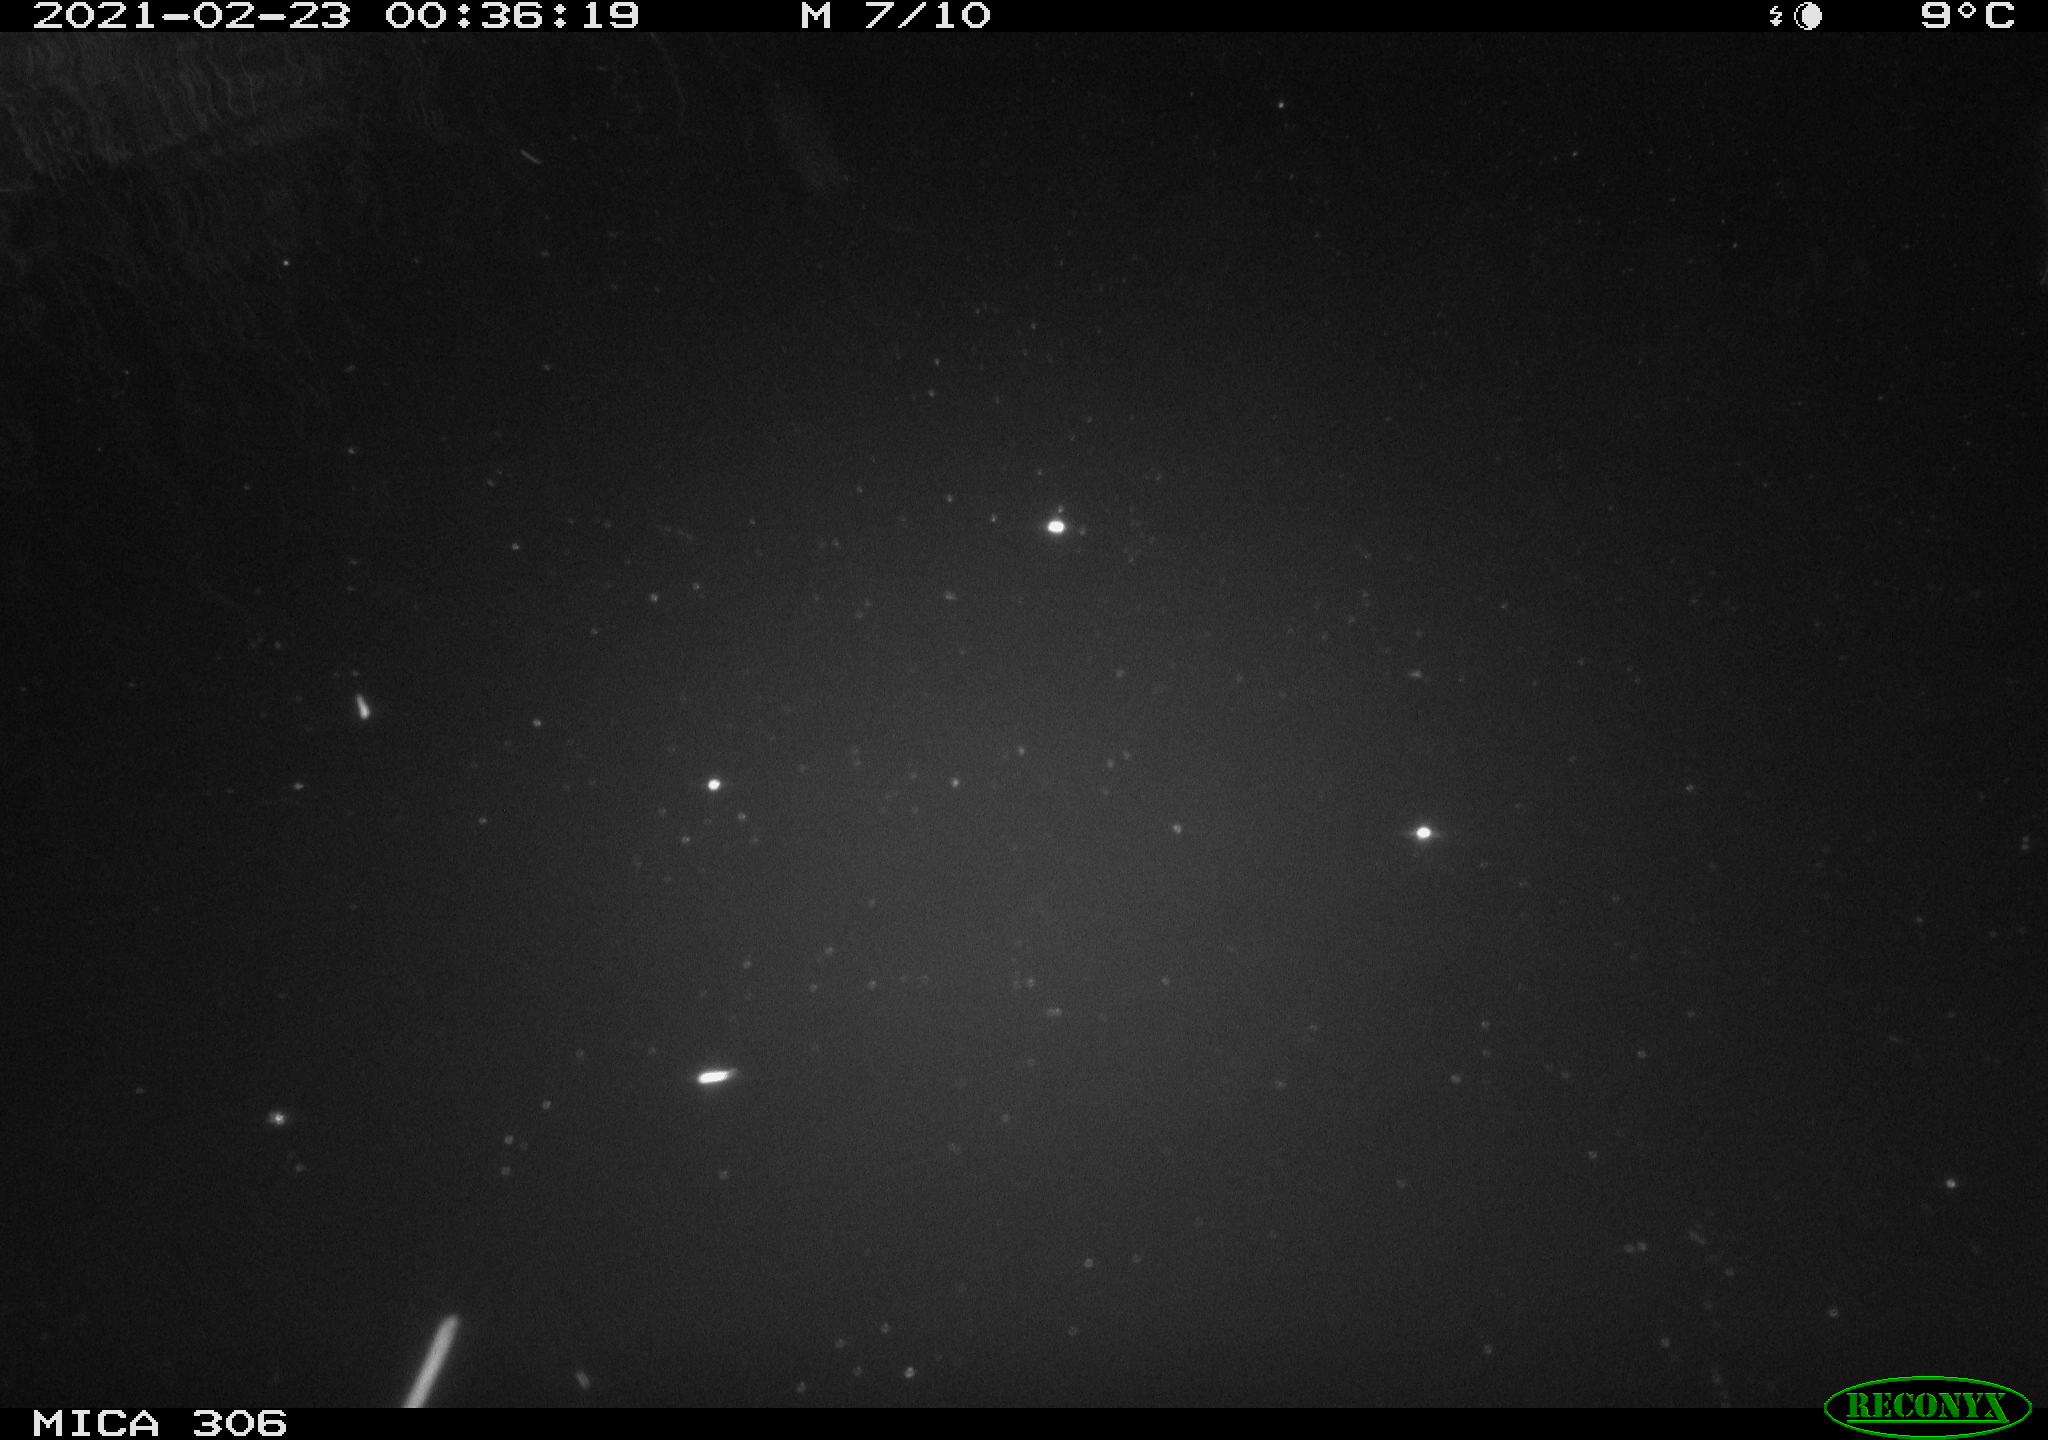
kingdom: Animalia
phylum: Chordata
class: Mammalia
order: Rodentia
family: Cricetidae
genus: Ondatra
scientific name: Ondatra zibethicus
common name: Muskrat
